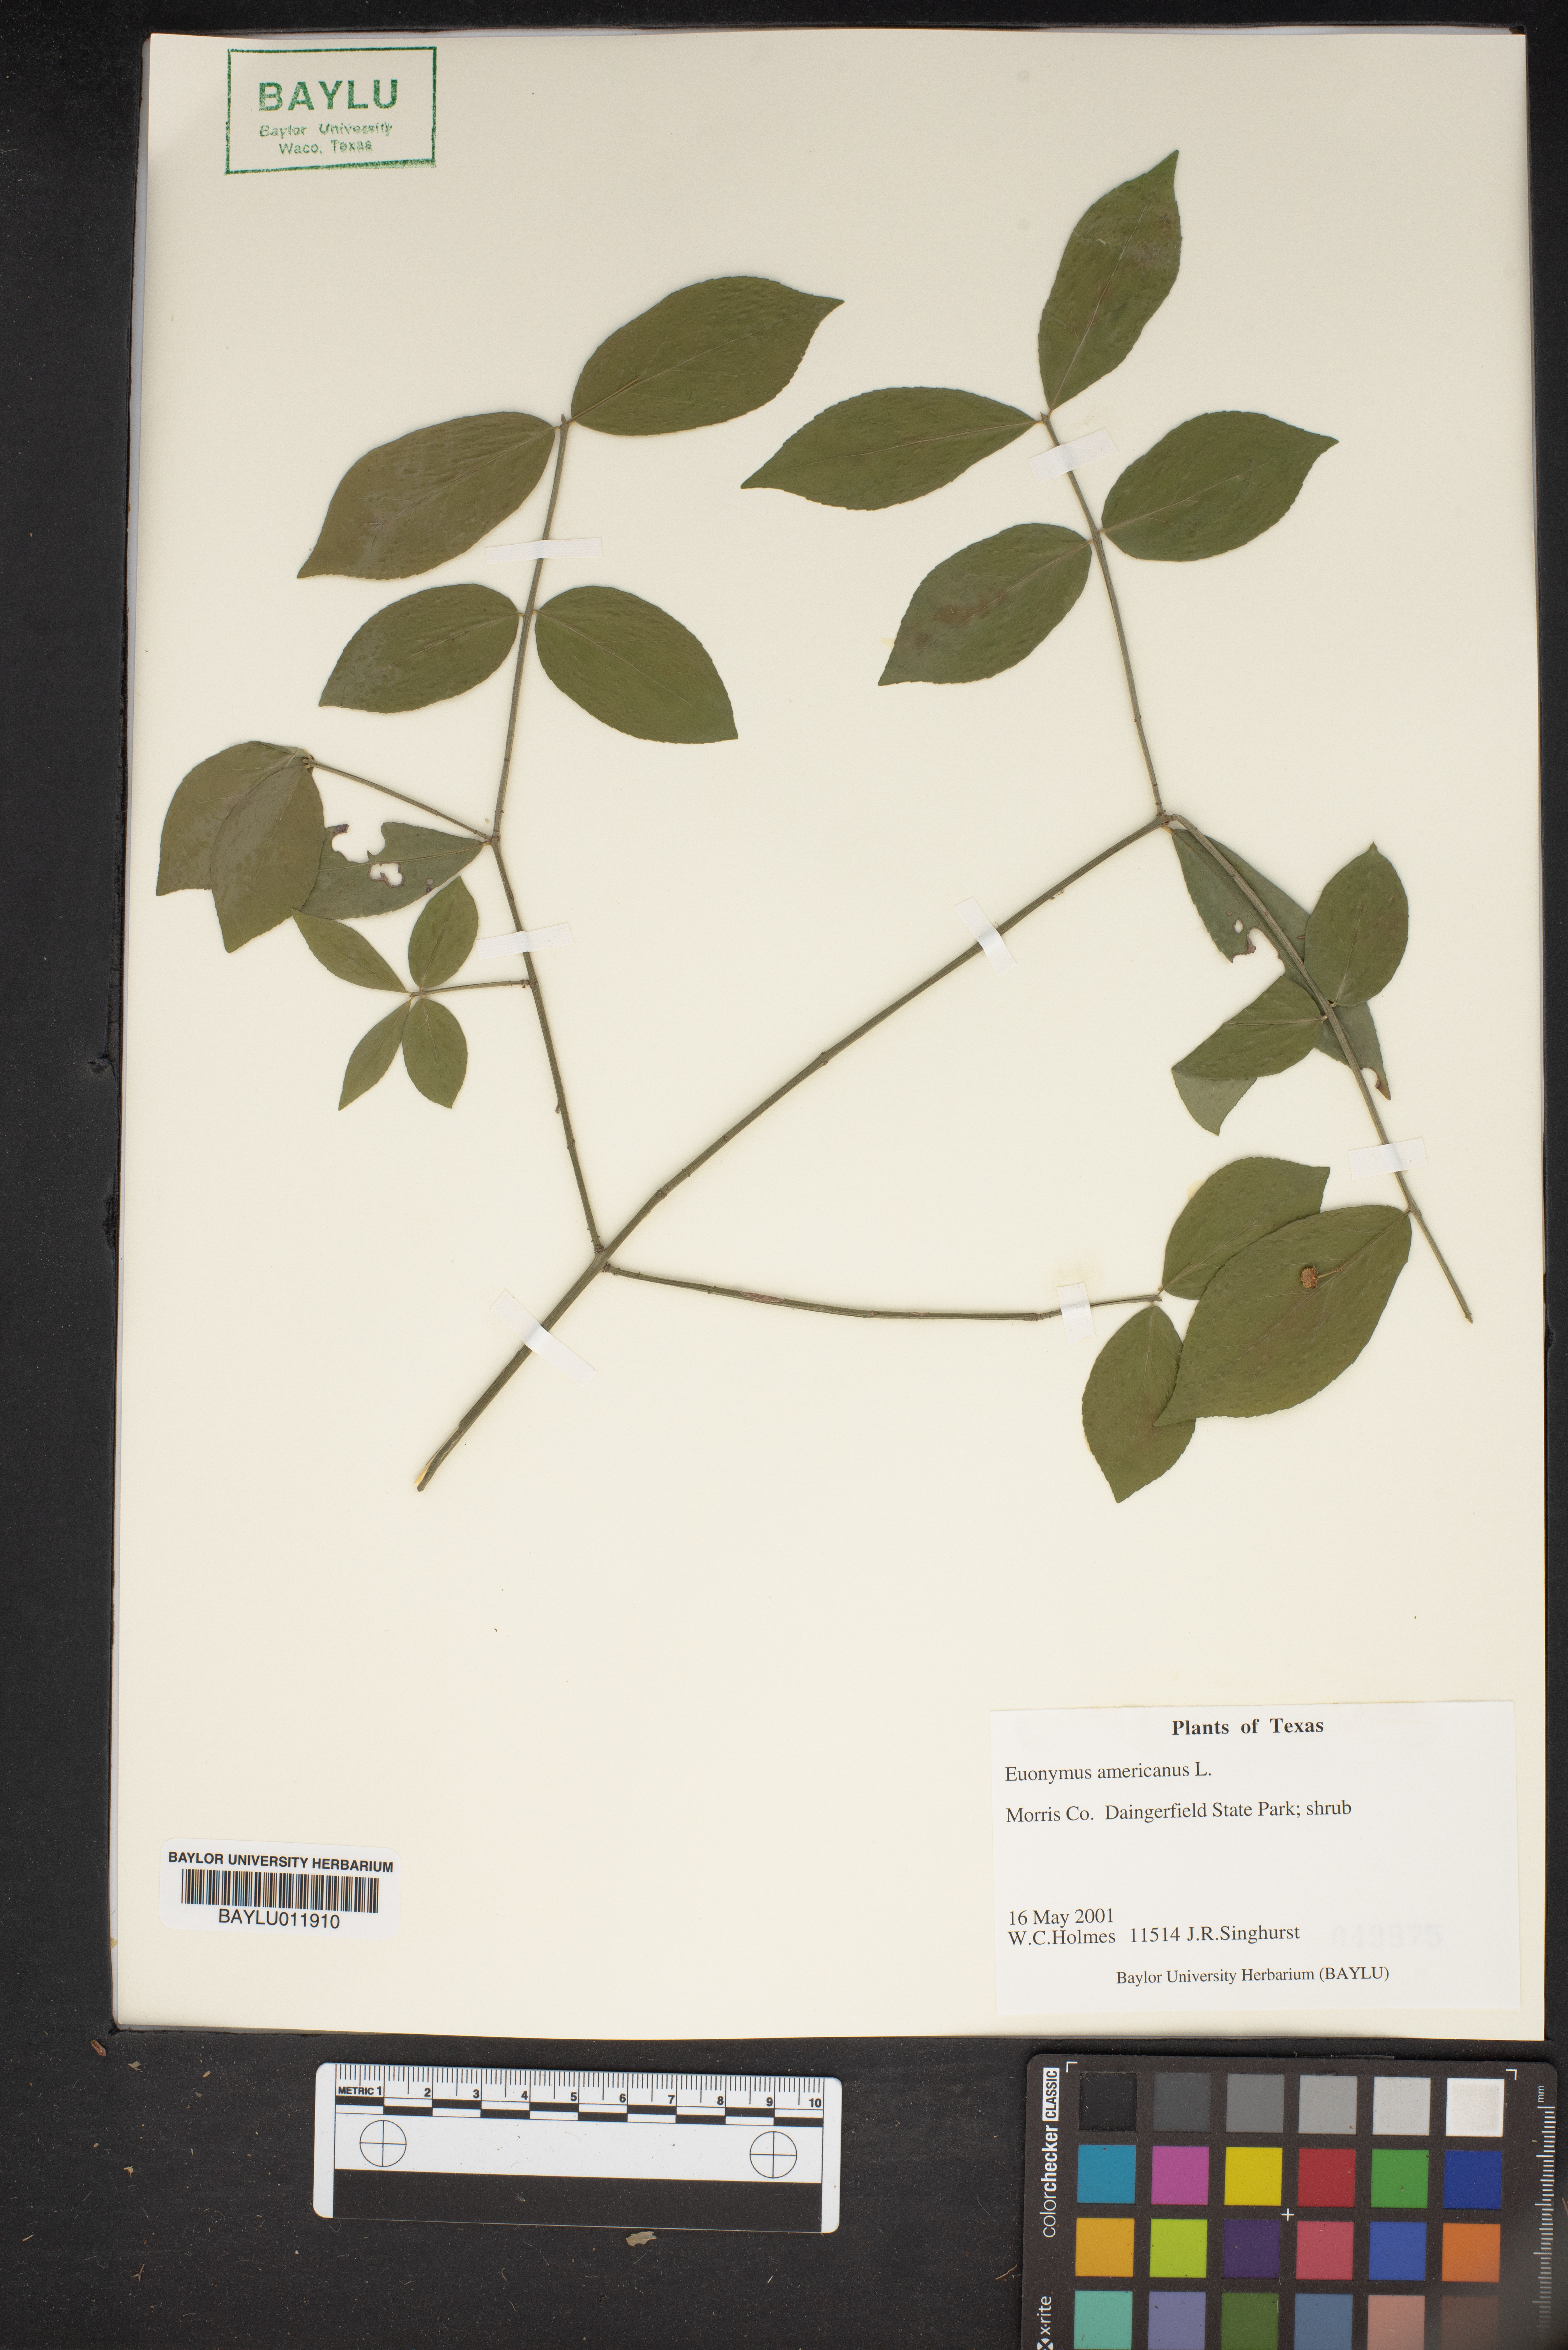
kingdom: Plantae
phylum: Tracheophyta
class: Magnoliopsida
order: Celastrales
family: Celastraceae
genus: Euonymus
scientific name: Euonymus americanus
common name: Bursting-heart
